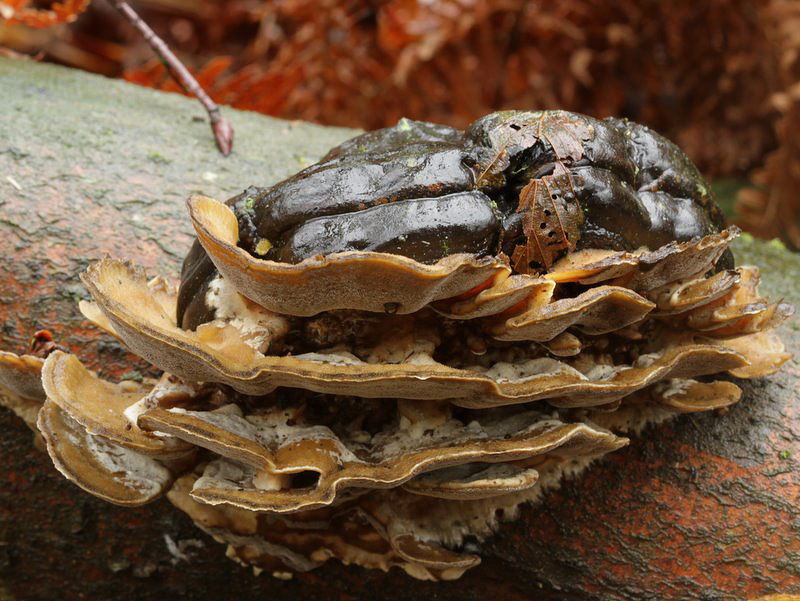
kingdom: Fungi
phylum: Basidiomycota
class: Agaricomycetes
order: Polyporales
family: Phanerochaetaceae
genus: Bjerkandera
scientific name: Bjerkandera adusta
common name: sveden sodporesvamp
